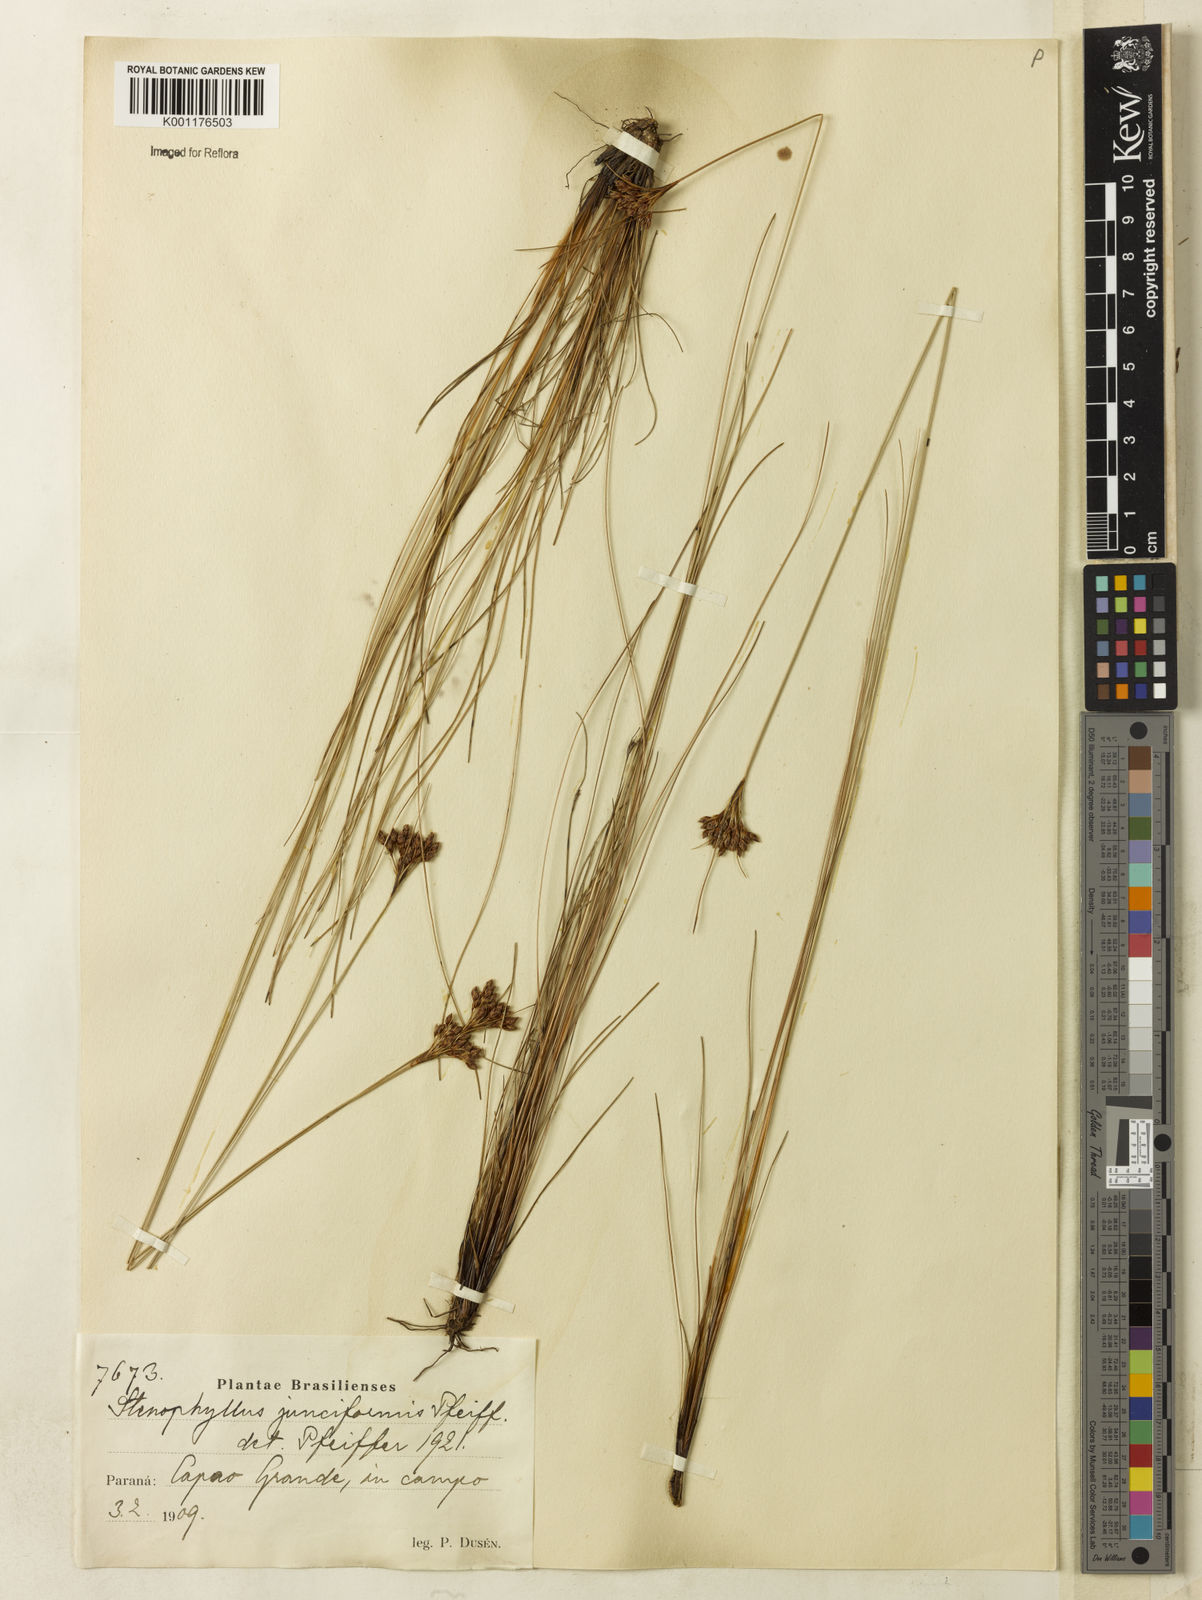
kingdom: Plantae
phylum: Tracheophyta
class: Liliopsida
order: Poales
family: Cyperaceae
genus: Bulbostylis
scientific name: Bulbostylis communis
